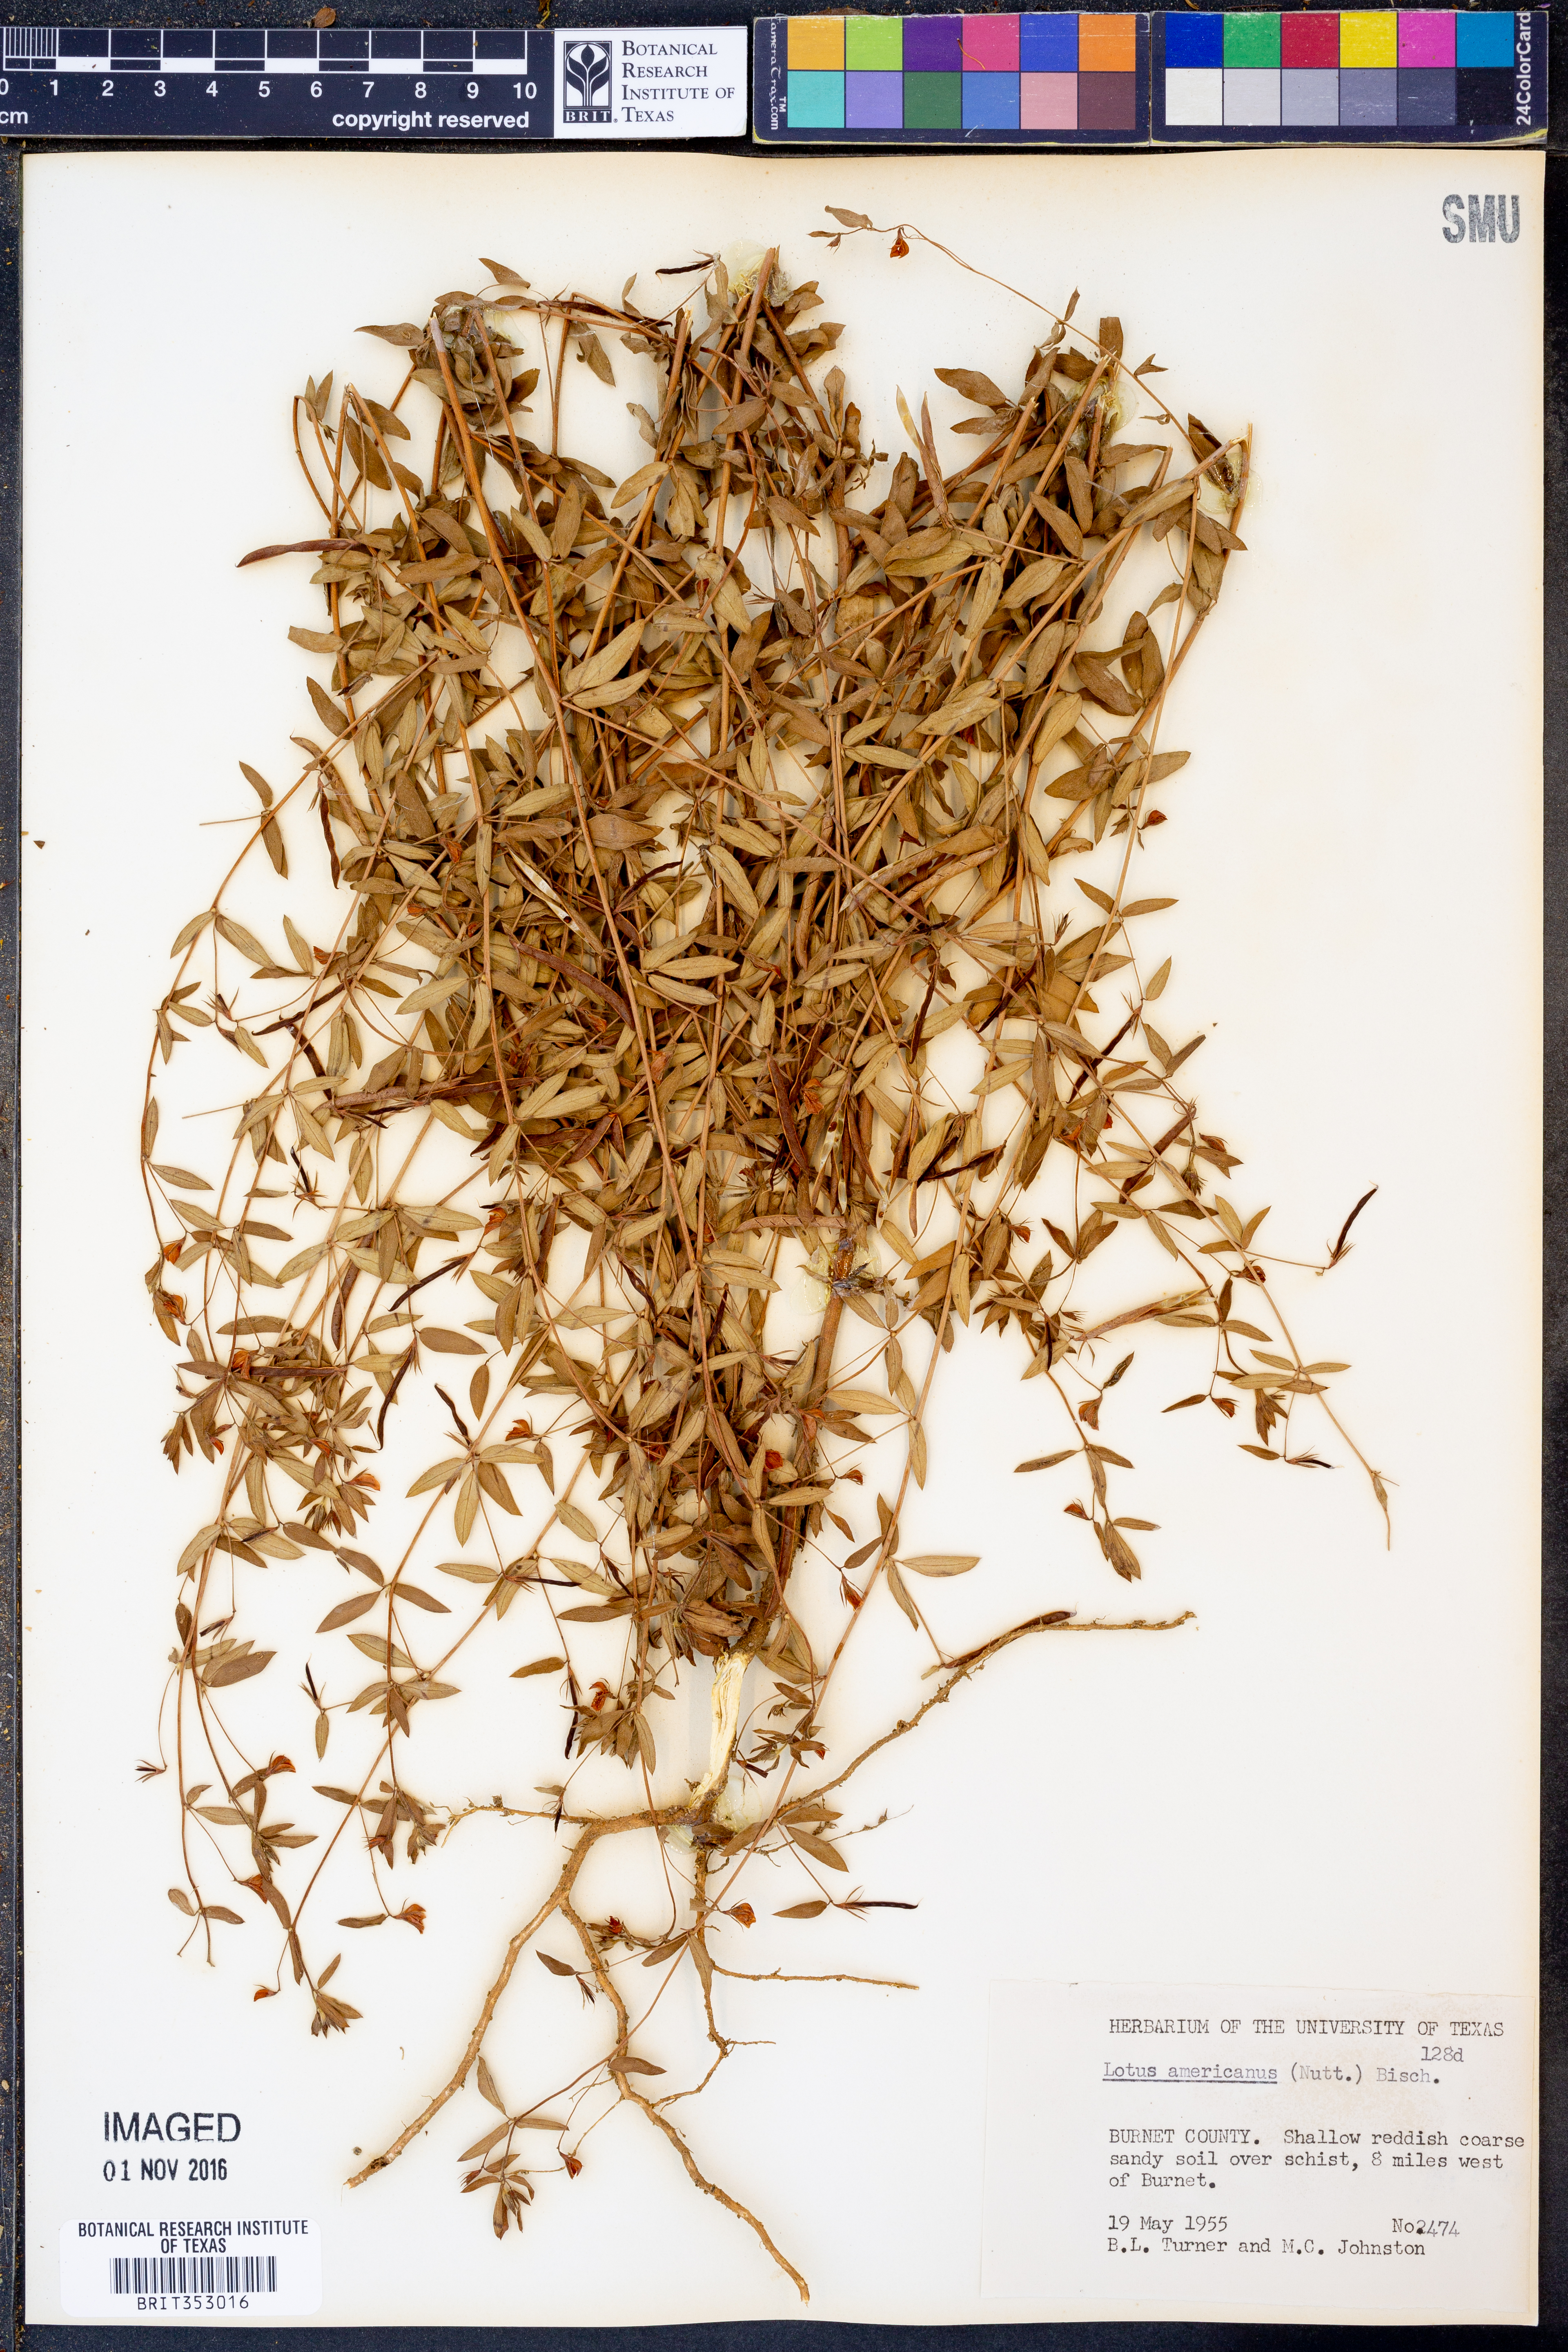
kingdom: Plantae
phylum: Tracheophyta
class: Magnoliopsida
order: Fabales
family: Fabaceae
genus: Acmispon
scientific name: Acmispon americanus
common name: American bird's-foot trefoil
